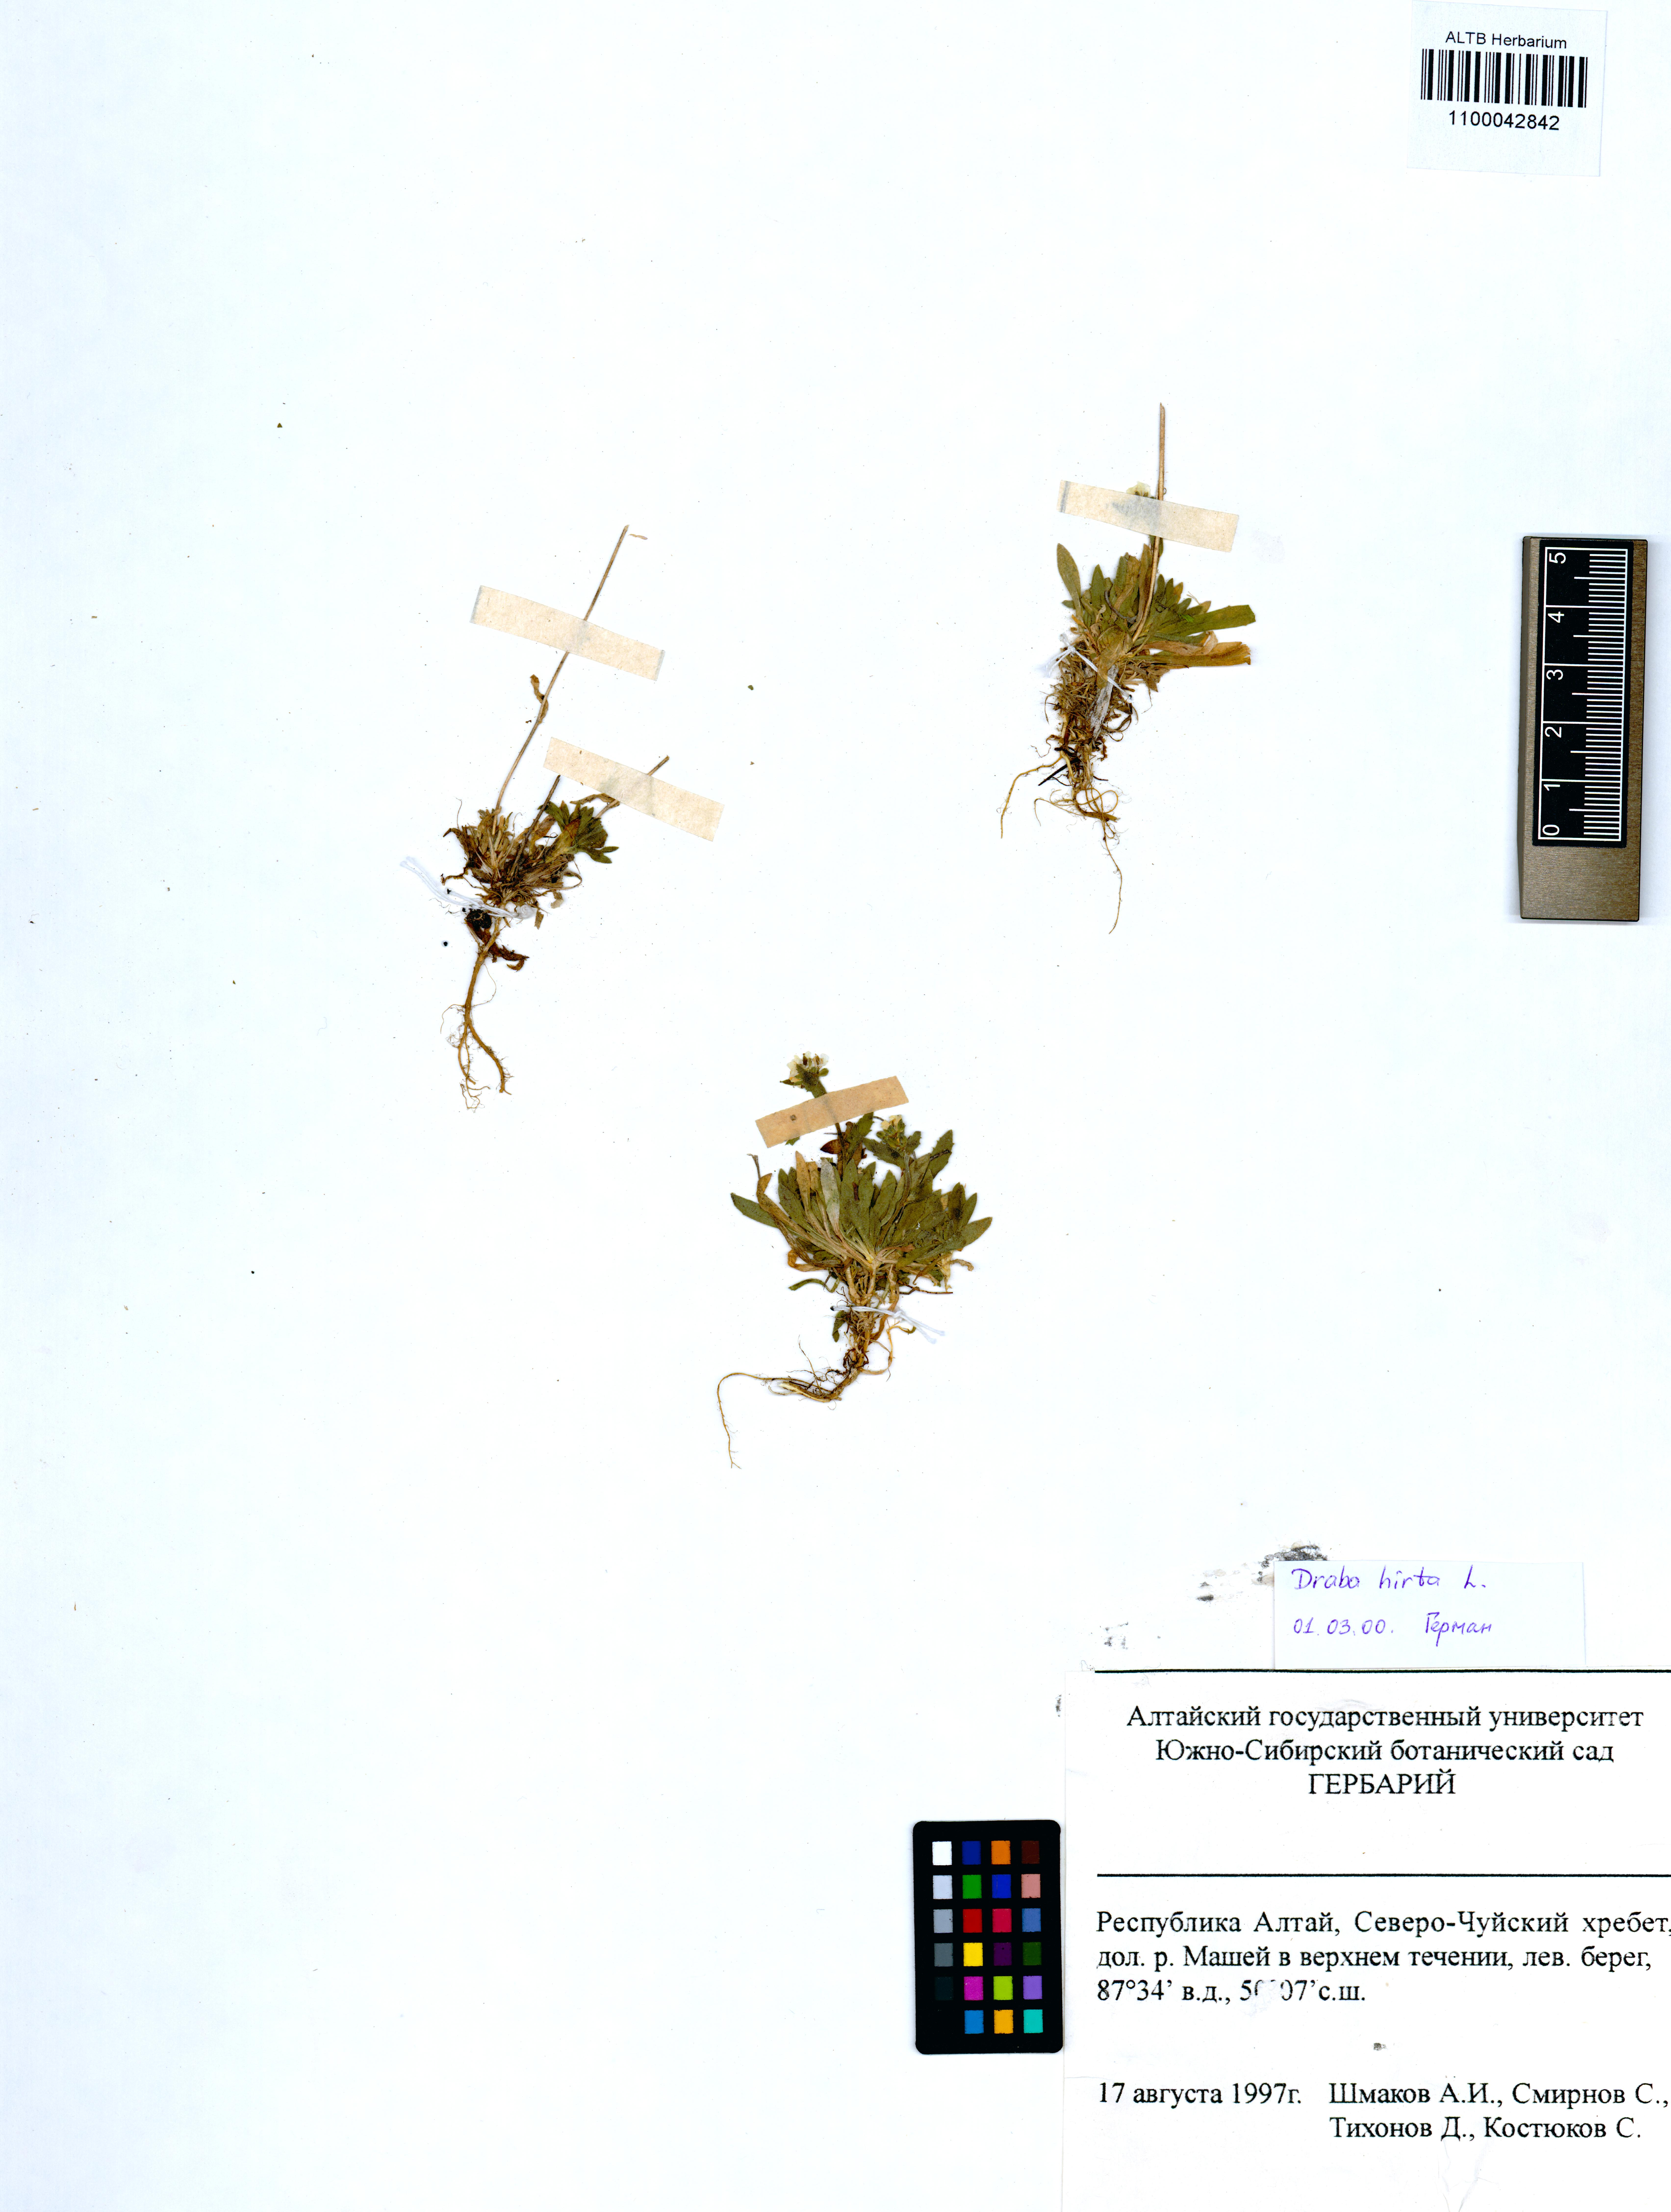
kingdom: Plantae
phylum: Tracheophyta
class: Magnoliopsida
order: Brassicales
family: Brassicaceae
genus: Draba
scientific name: Draba glabella
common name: Glaucous draba
